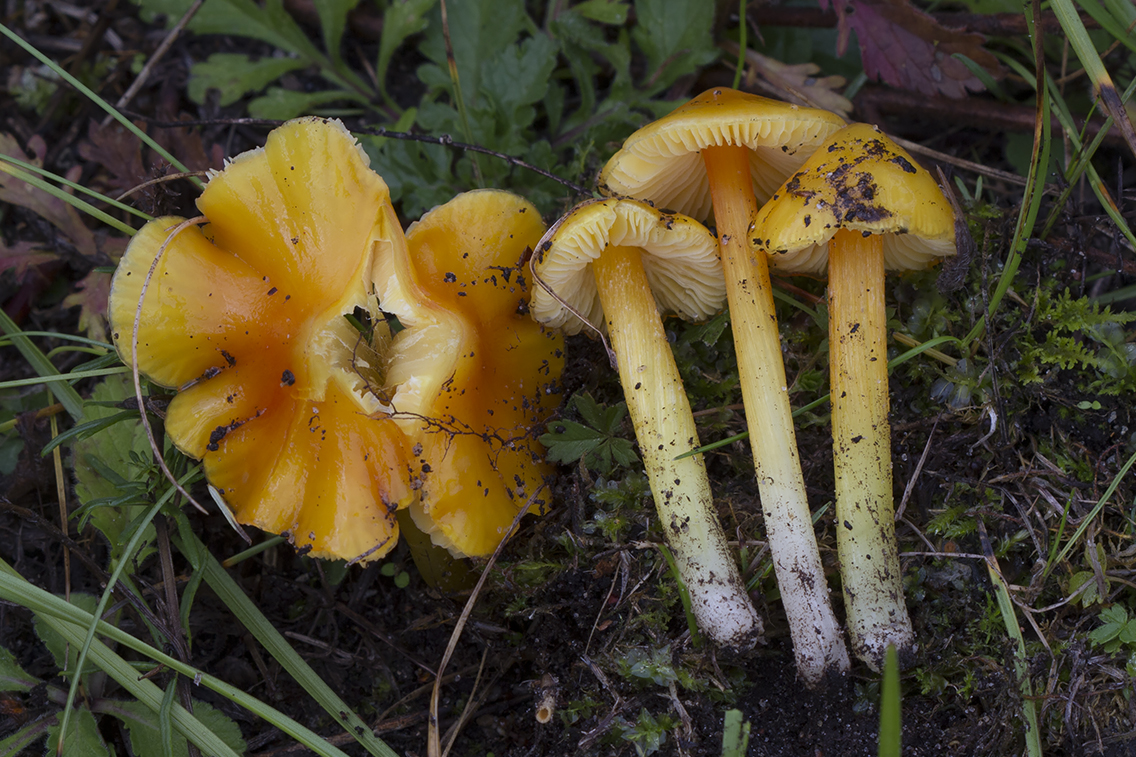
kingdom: Fungi
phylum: Basidiomycota
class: Agaricomycetes
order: Agaricales
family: Hygrophoraceae
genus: Hygrocybe
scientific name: Hygrocybe acutoconica
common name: spidspuklet vokshat
